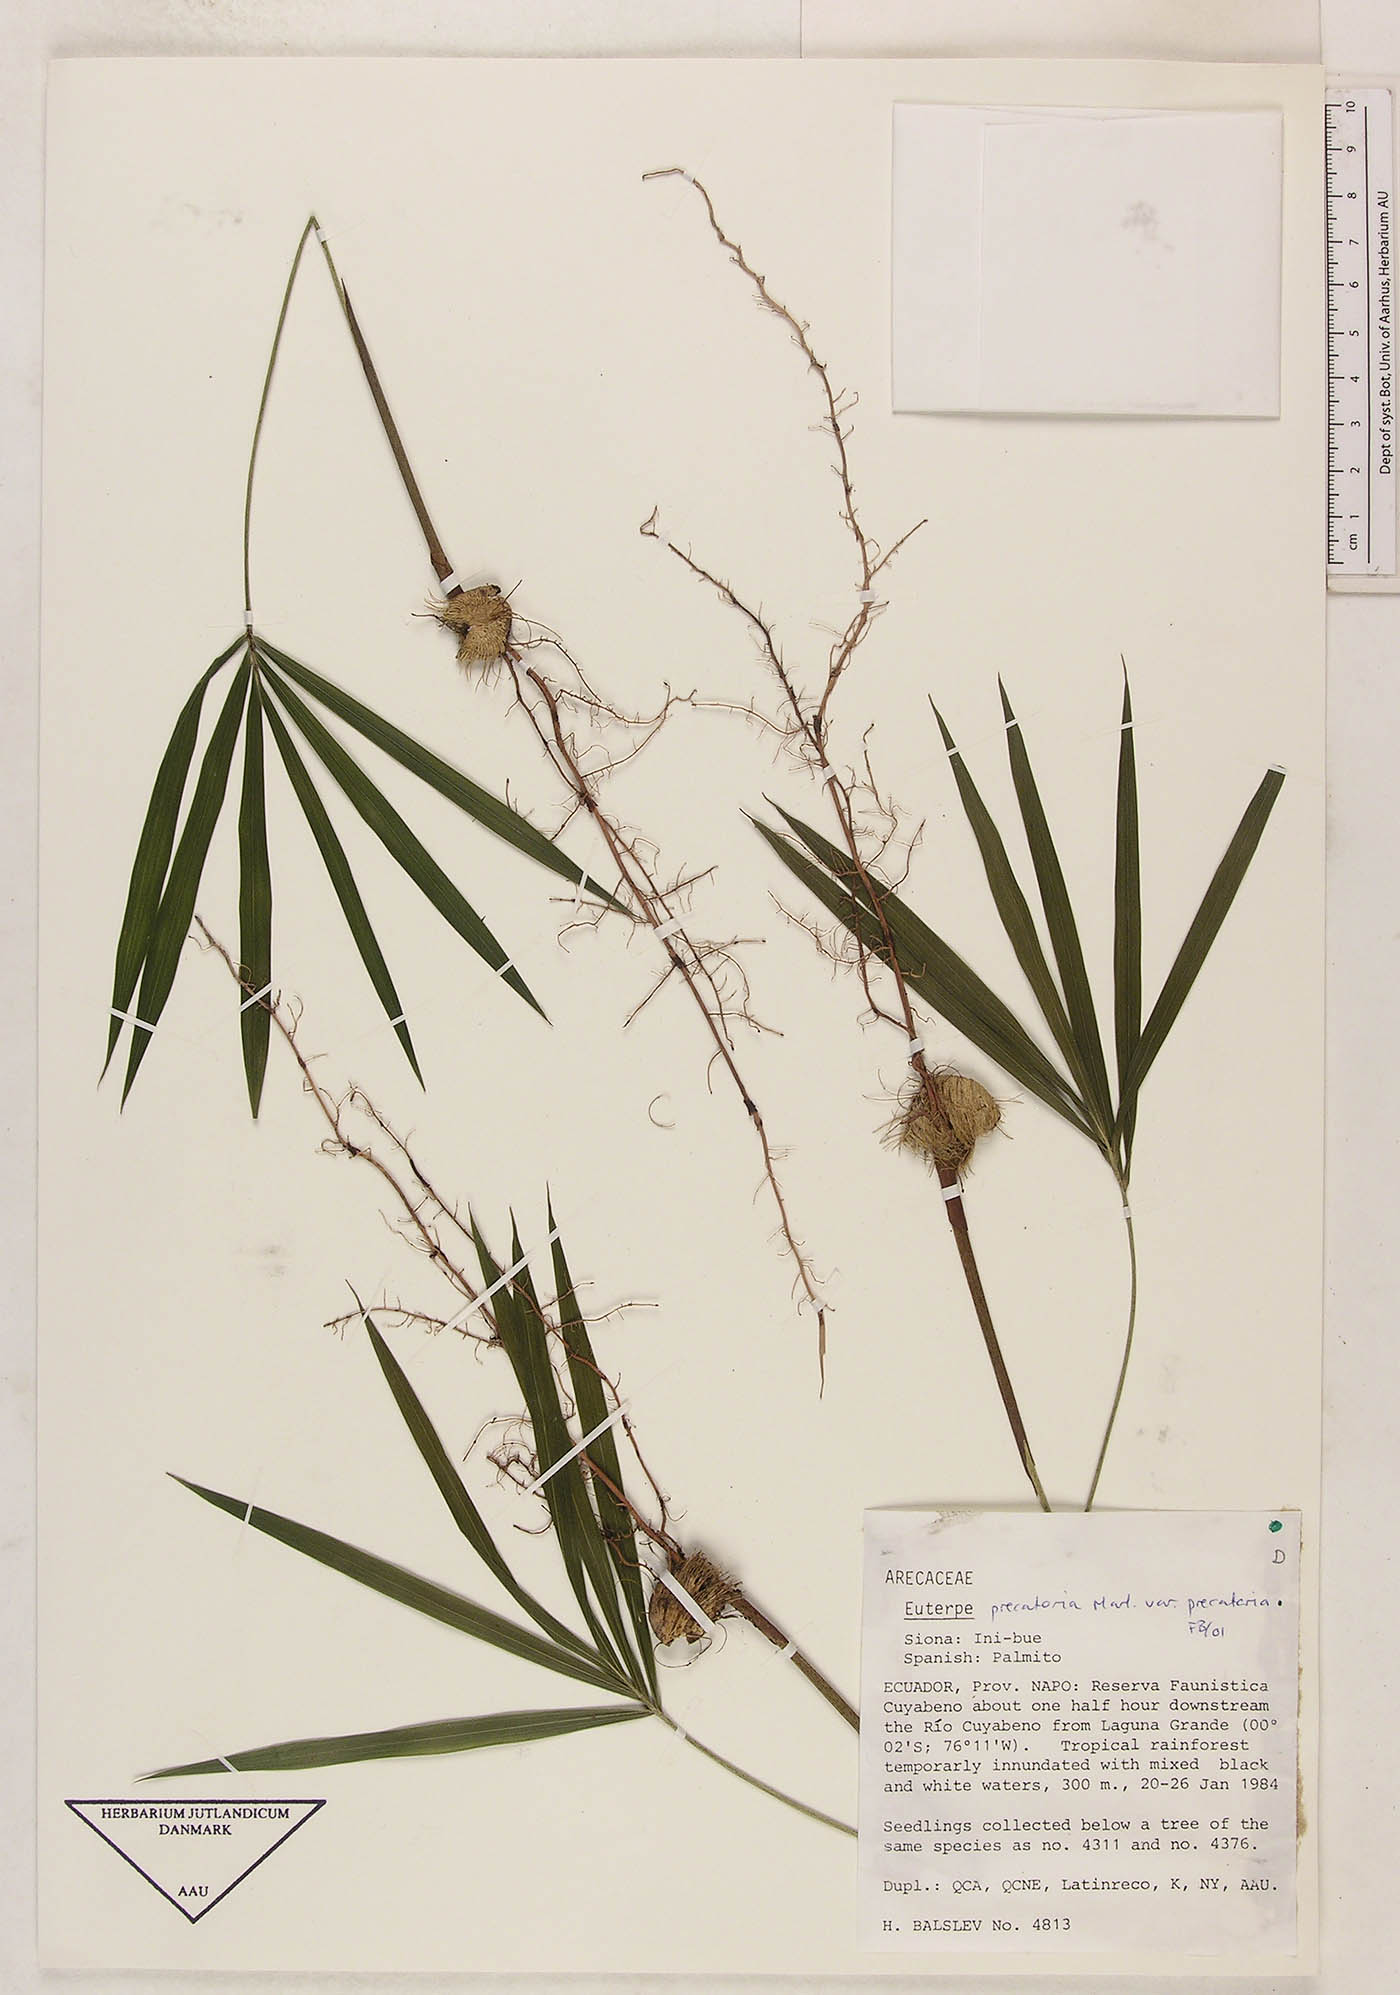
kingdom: Plantae
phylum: Tracheophyta
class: Liliopsida
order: Arecales
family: Arecaceae
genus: Euterpe
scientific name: Euterpe precatoria
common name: Mountain-cabbage
